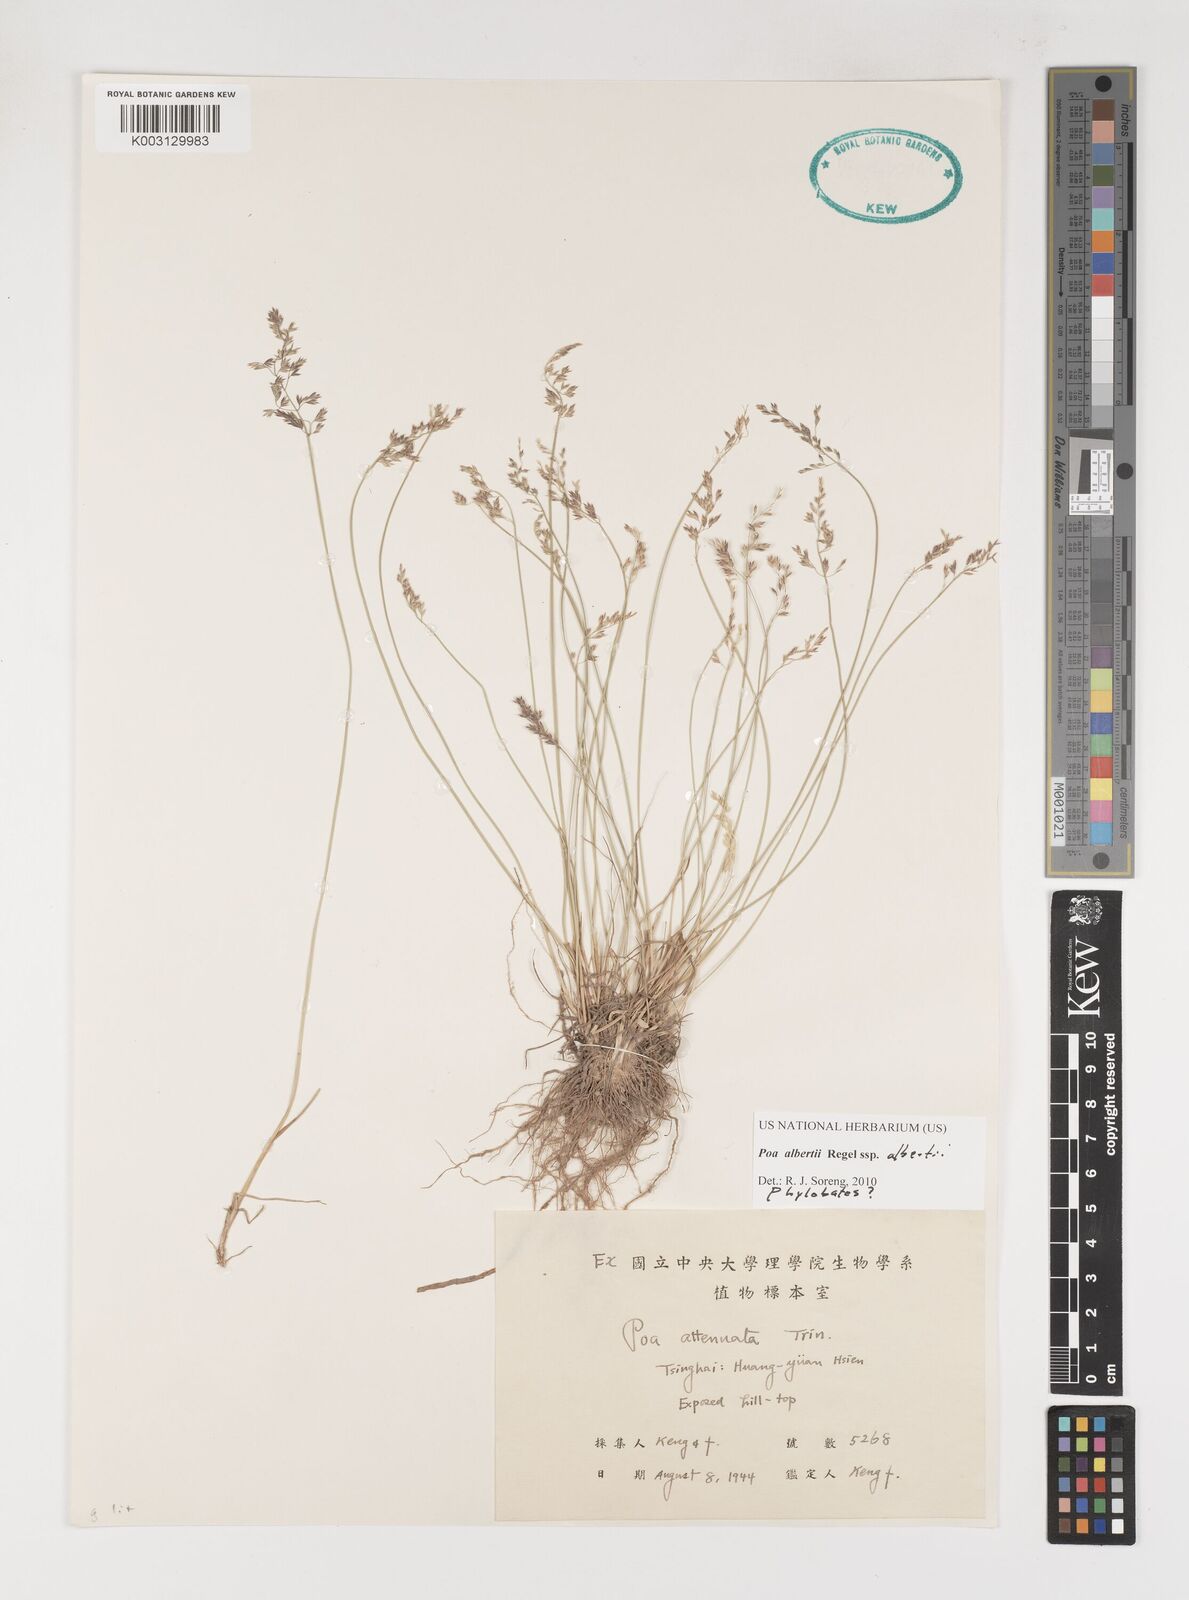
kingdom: Plantae
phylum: Tracheophyta
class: Liliopsida
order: Poales
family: Poaceae
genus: Poa
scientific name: Poa alberti
